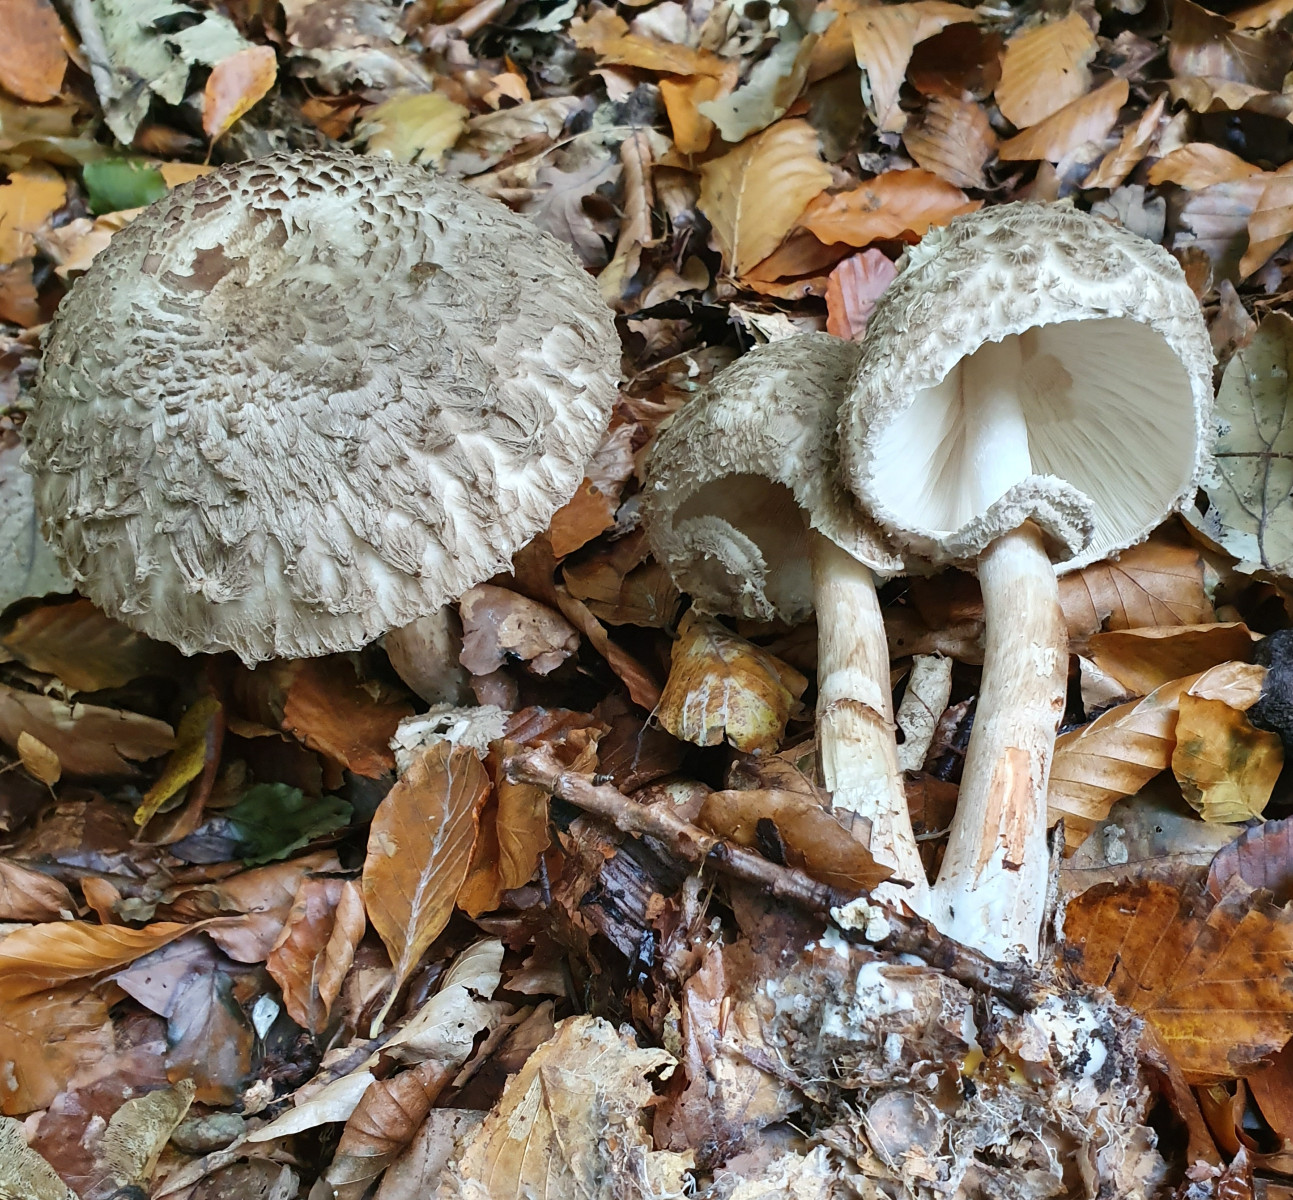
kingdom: Fungi
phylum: Basidiomycota
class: Agaricomycetes
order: Agaricales
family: Agaricaceae
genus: Chlorophyllum
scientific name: Chlorophyllum olivieri
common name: almindelig rabarberhat
